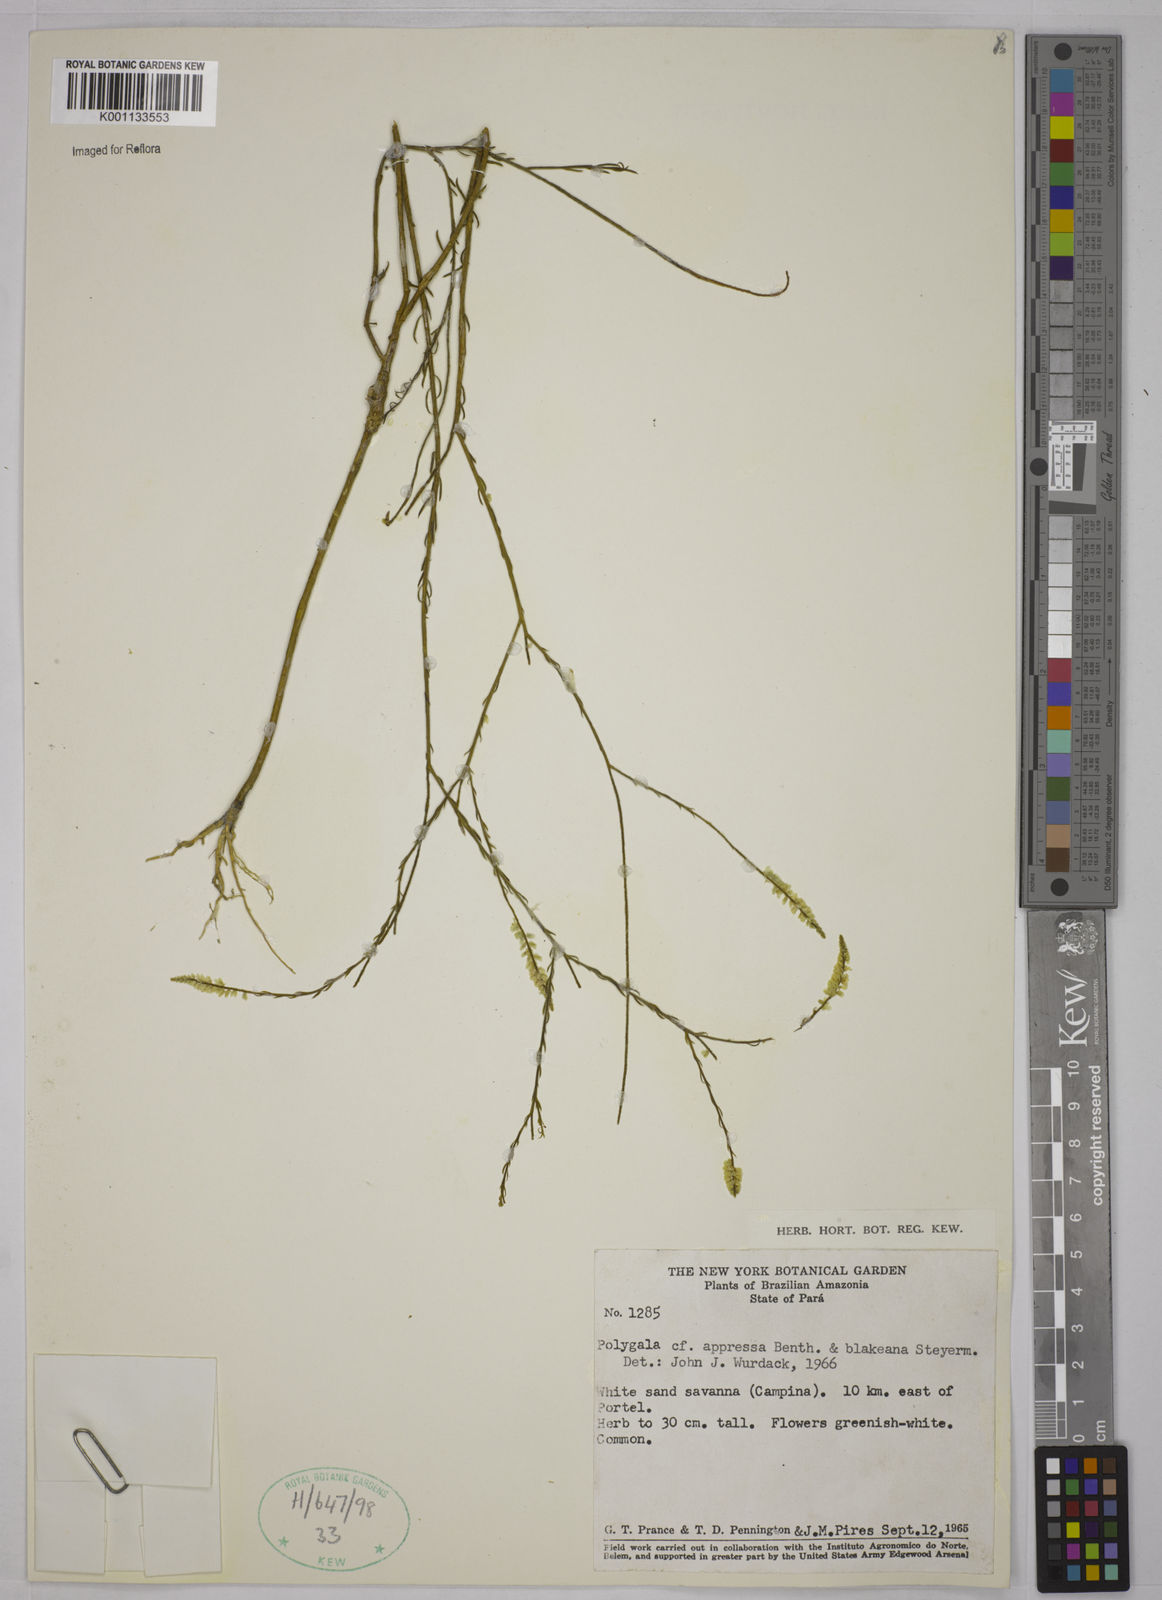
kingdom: Plantae
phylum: Tracheophyta
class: Magnoliopsida
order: Fabales
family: Polygalaceae
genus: Polygala
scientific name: Polygala appressa
